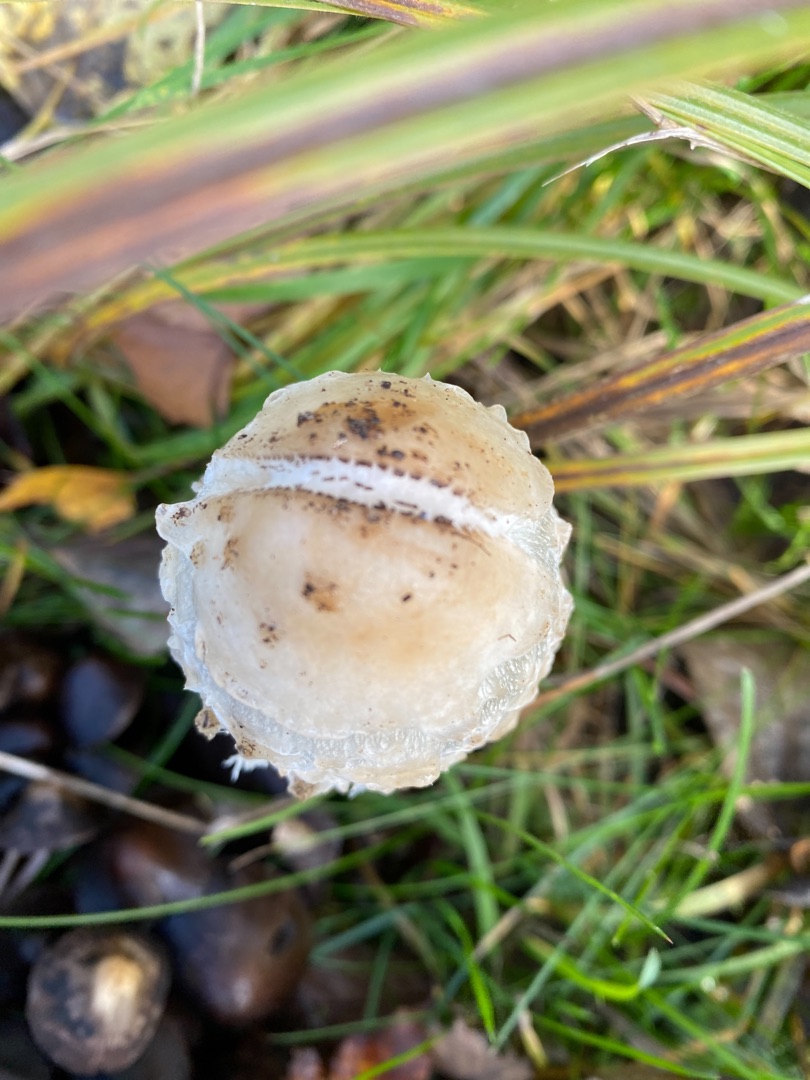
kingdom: Fungi
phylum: Basidiomycota
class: Agaricomycetes
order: Agaricales
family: Agaricaceae
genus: Coprinus
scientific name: Coprinus comatus
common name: Stor parykhat
